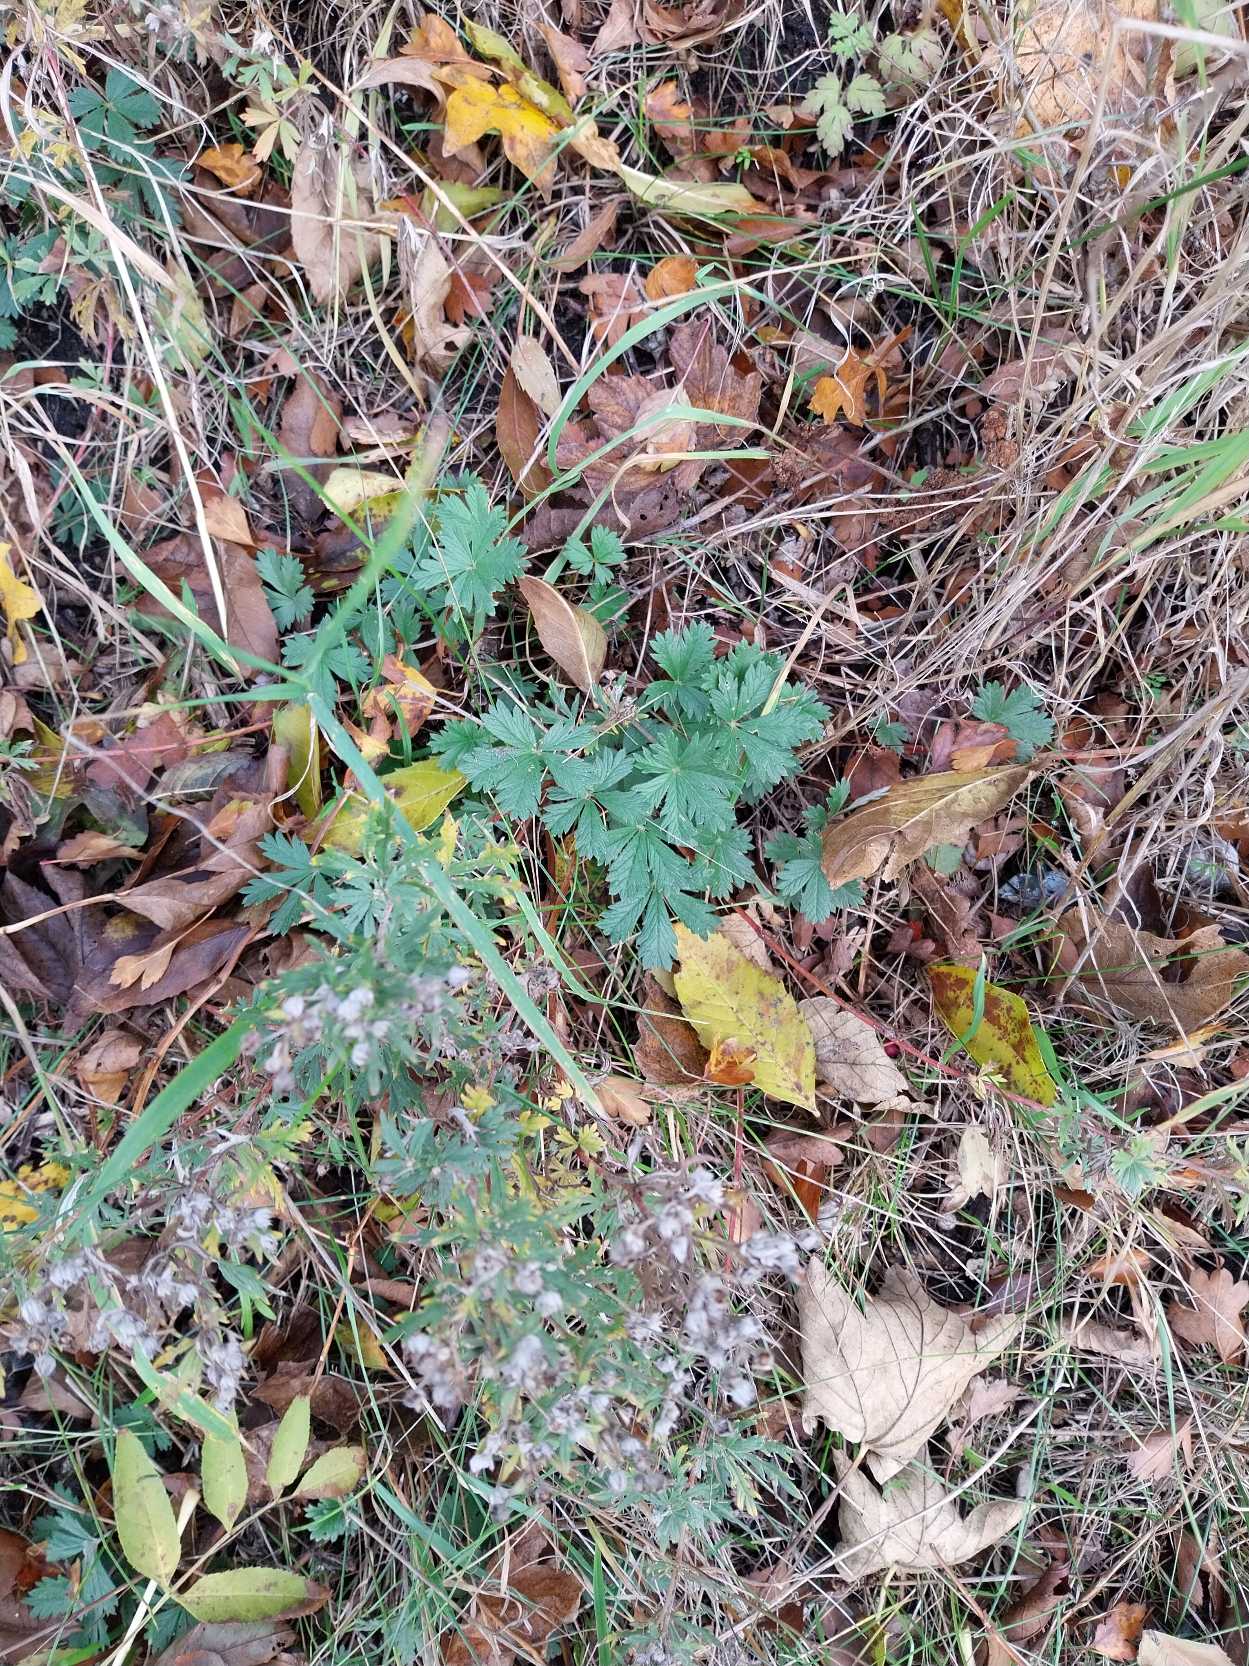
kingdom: Plantae
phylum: Tracheophyta
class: Magnoliopsida
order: Rosales
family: Rosaceae
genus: Potentilla
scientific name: Potentilla argentea
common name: Sølv-potentil
